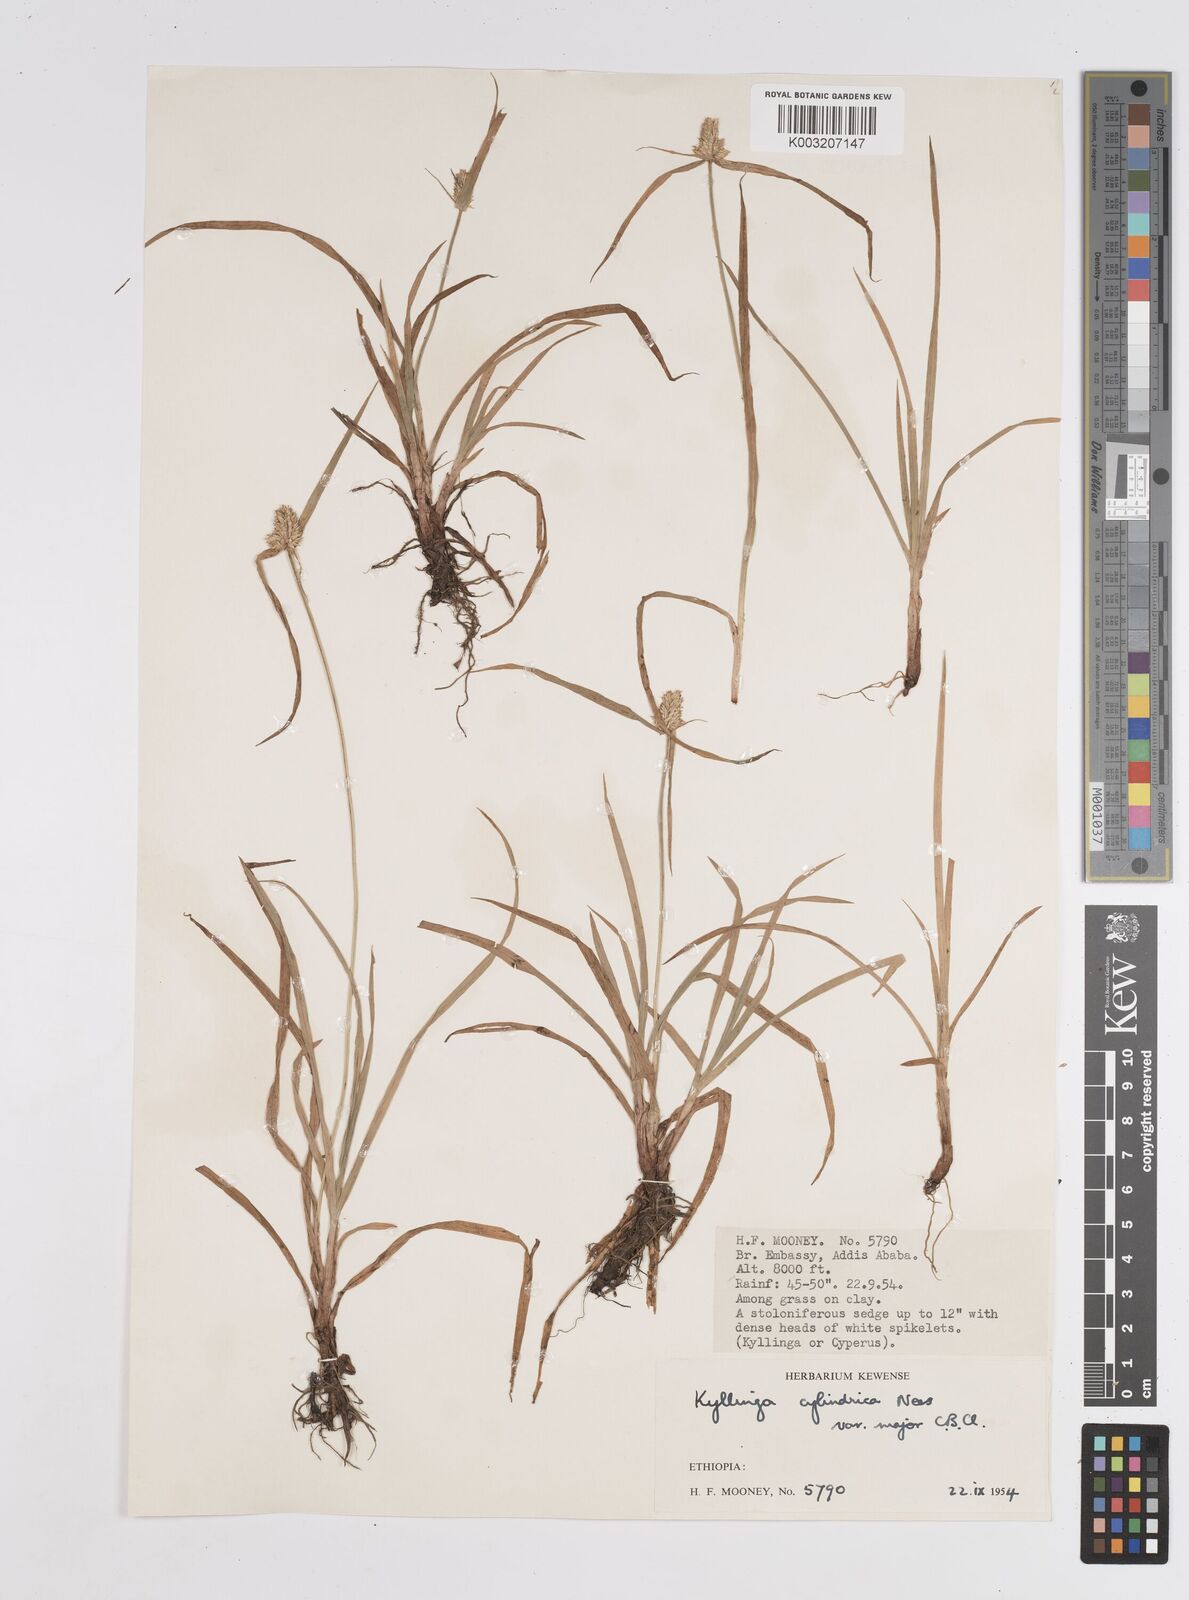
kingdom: Plantae
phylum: Tracheophyta
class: Liliopsida
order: Poales
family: Cyperaceae
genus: Cyperus
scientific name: Cyperus
